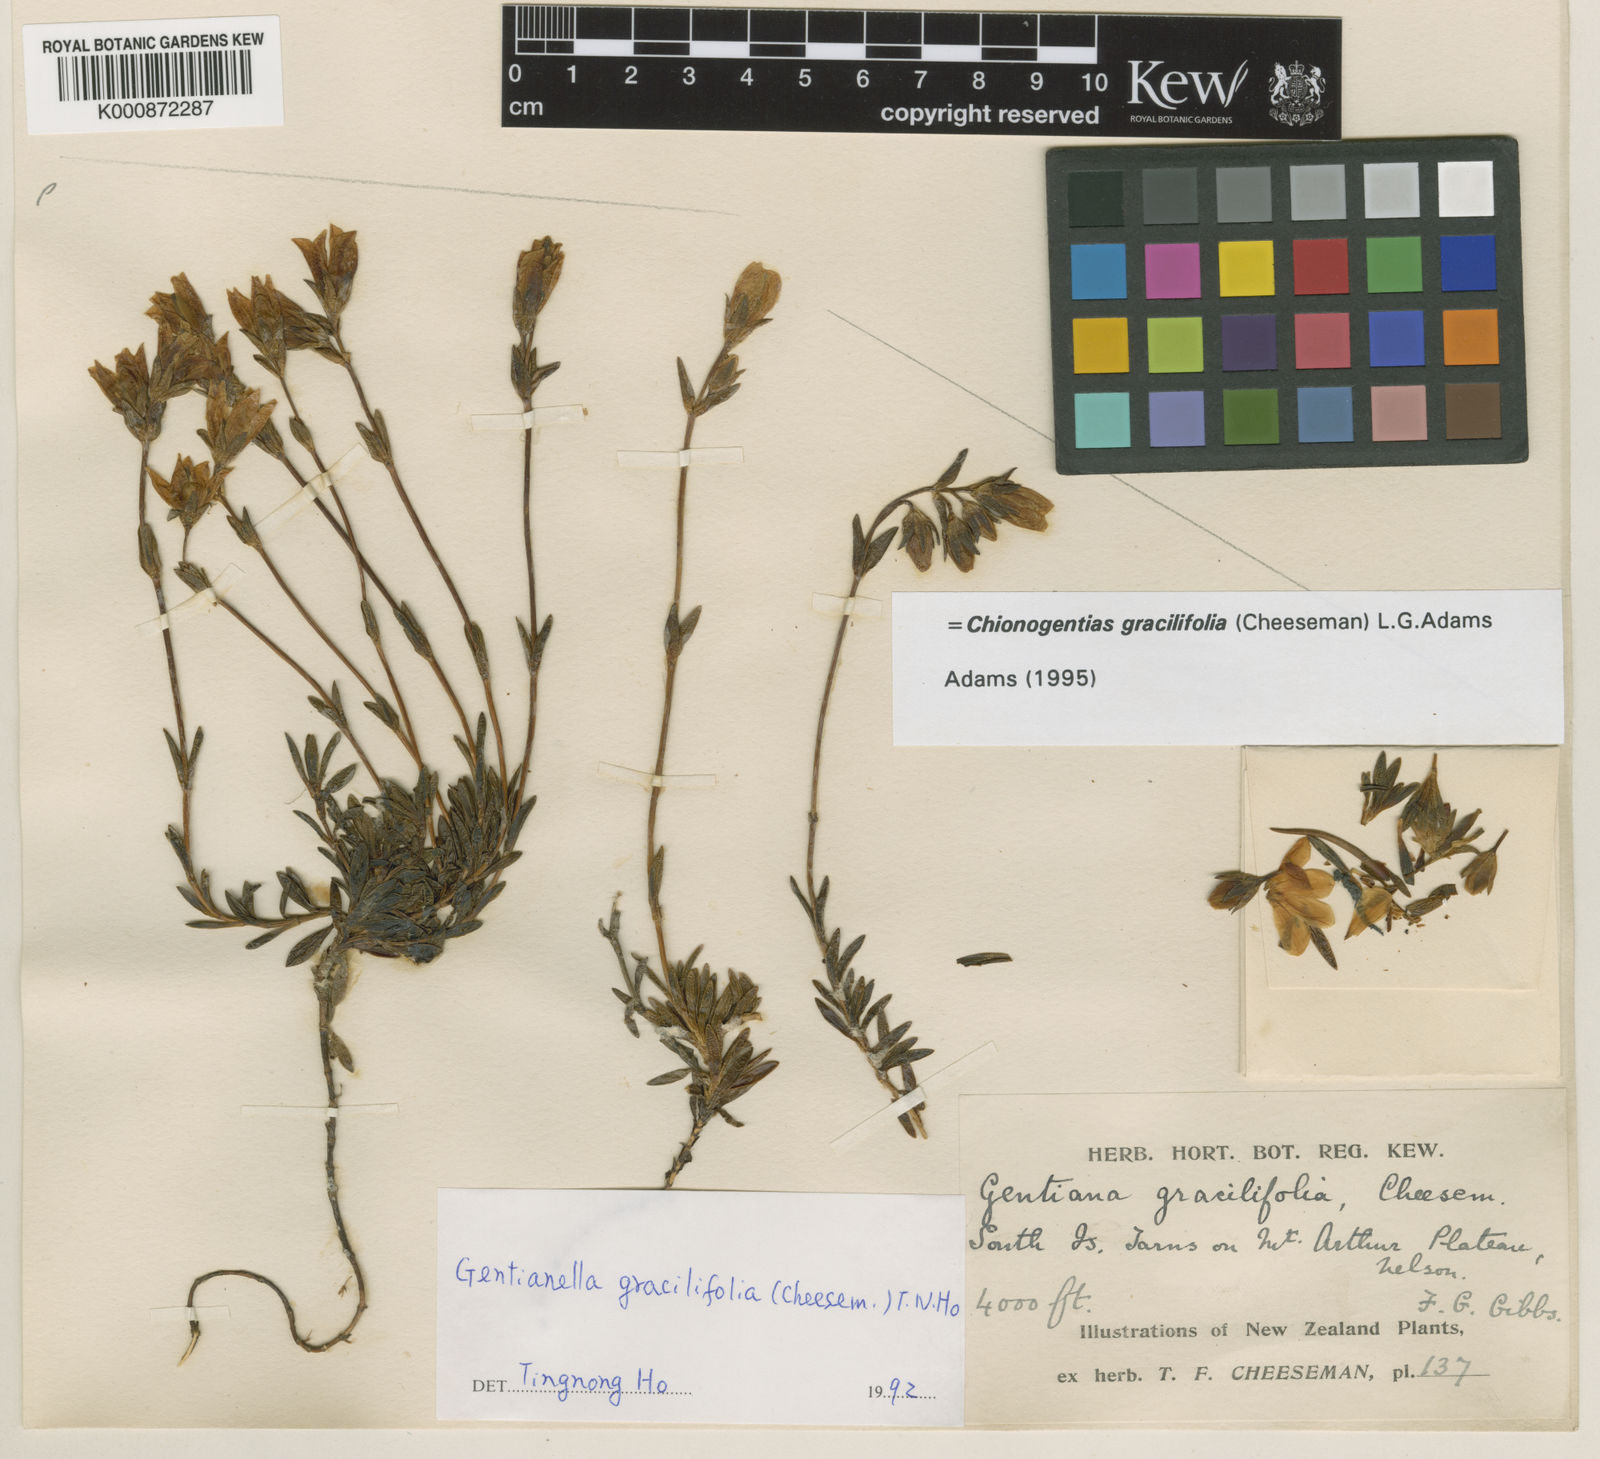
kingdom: Plantae
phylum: Tracheophyta
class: Magnoliopsida
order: Gentianales
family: Gentianaceae
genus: Gentianella
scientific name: Gentianella vernicosa
